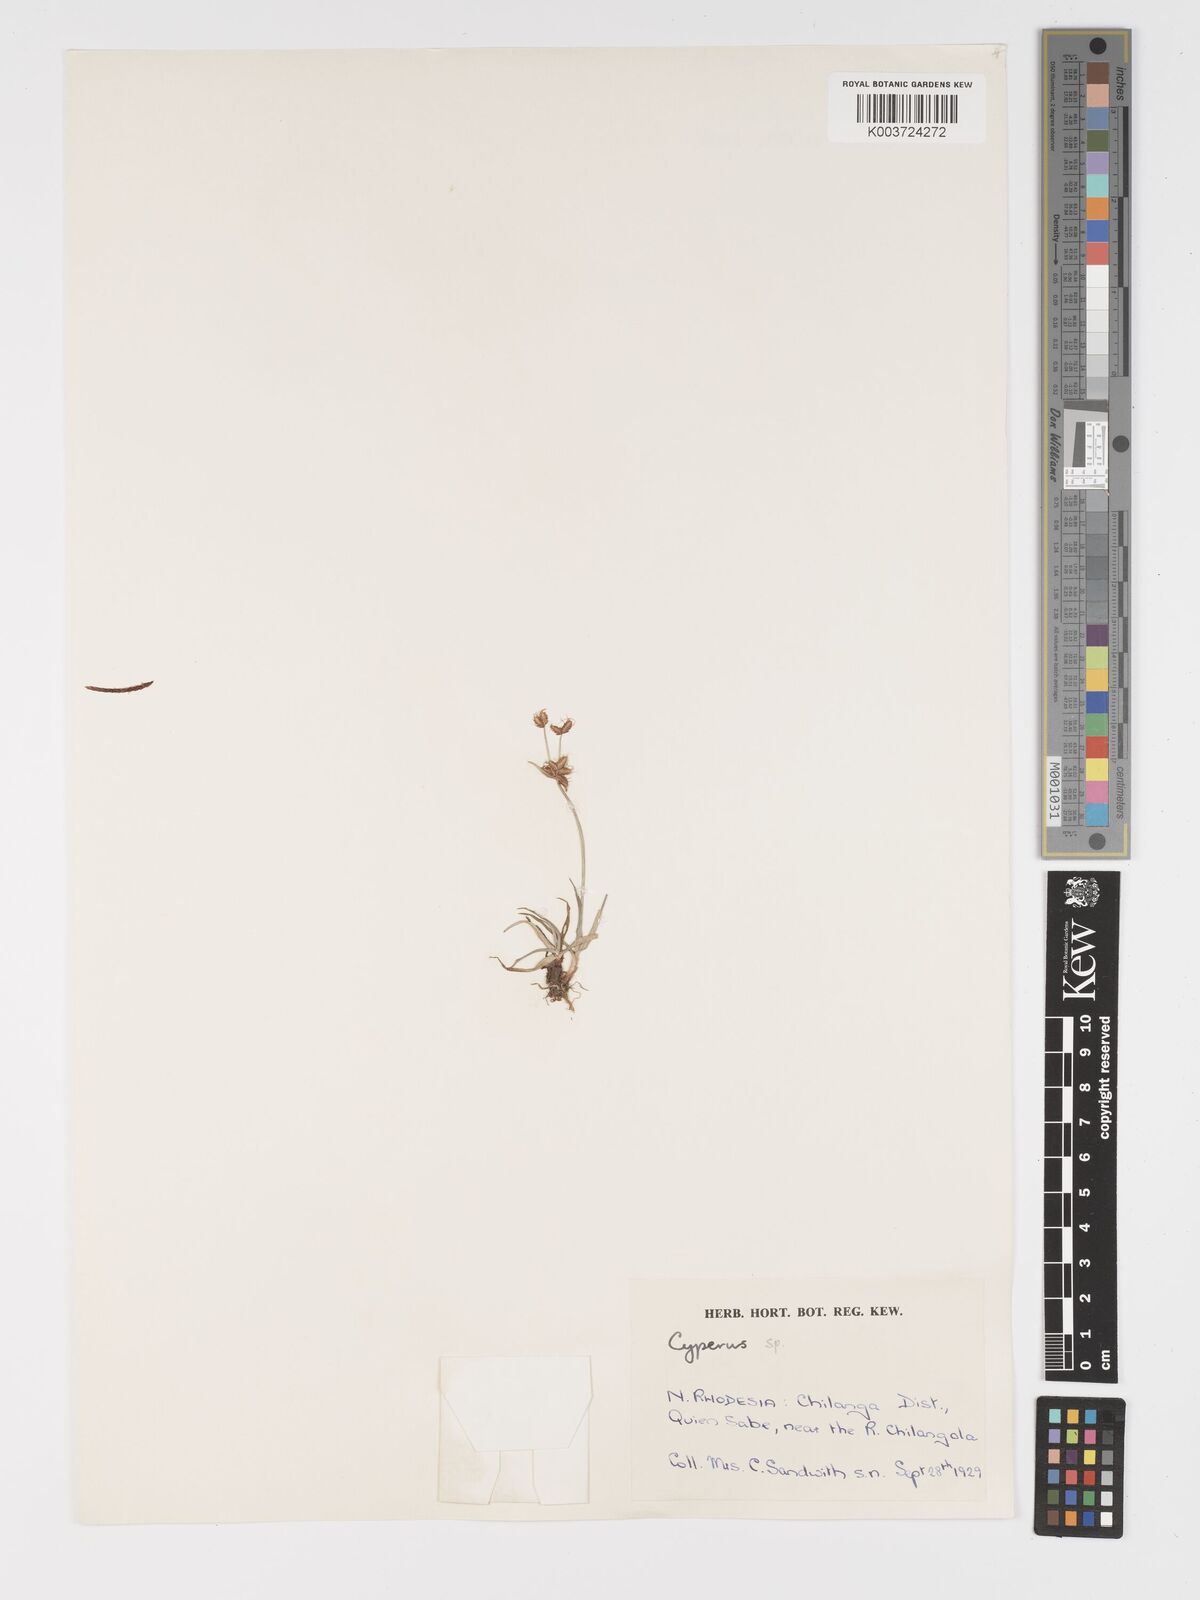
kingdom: Plantae
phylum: Tracheophyta
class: Liliopsida
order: Poales
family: Cyperaceae
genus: Cyperus
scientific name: Cyperus
